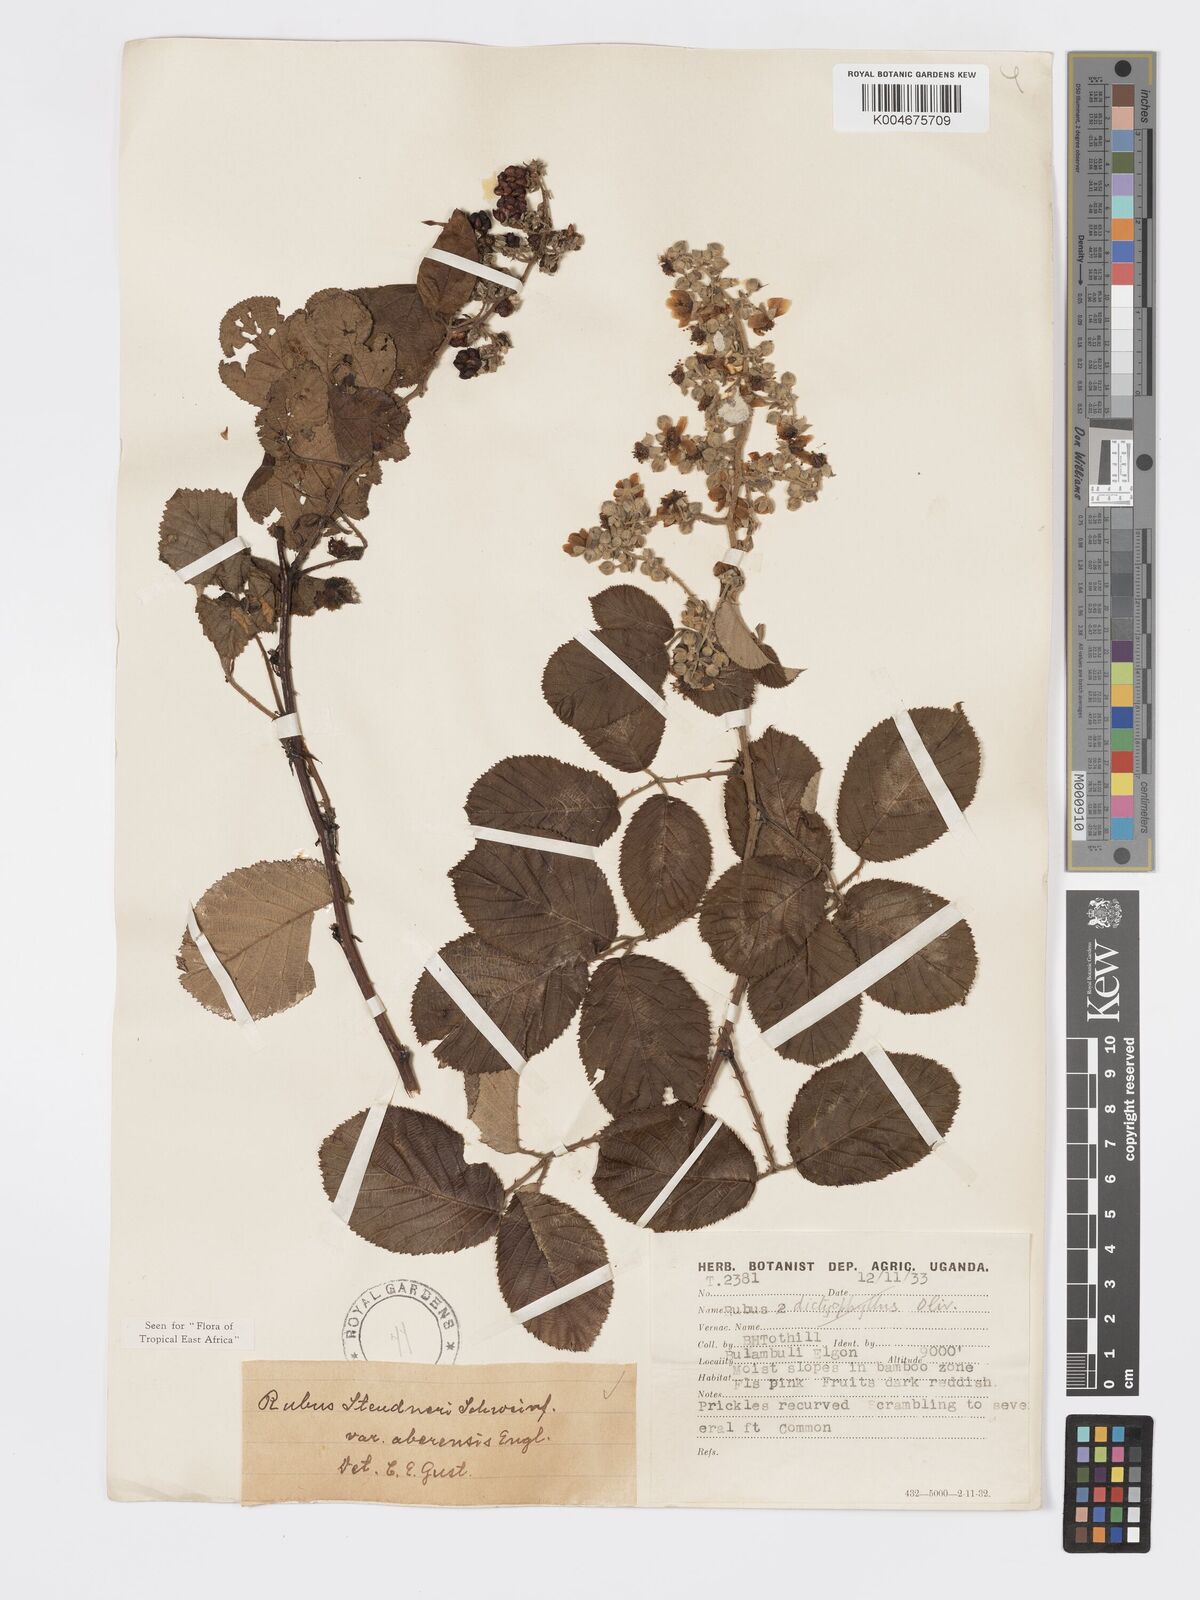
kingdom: Plantae
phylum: Tracheophyta
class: Magnoliopsida
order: Rosales
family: Rosaceae
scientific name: Rosaceae
